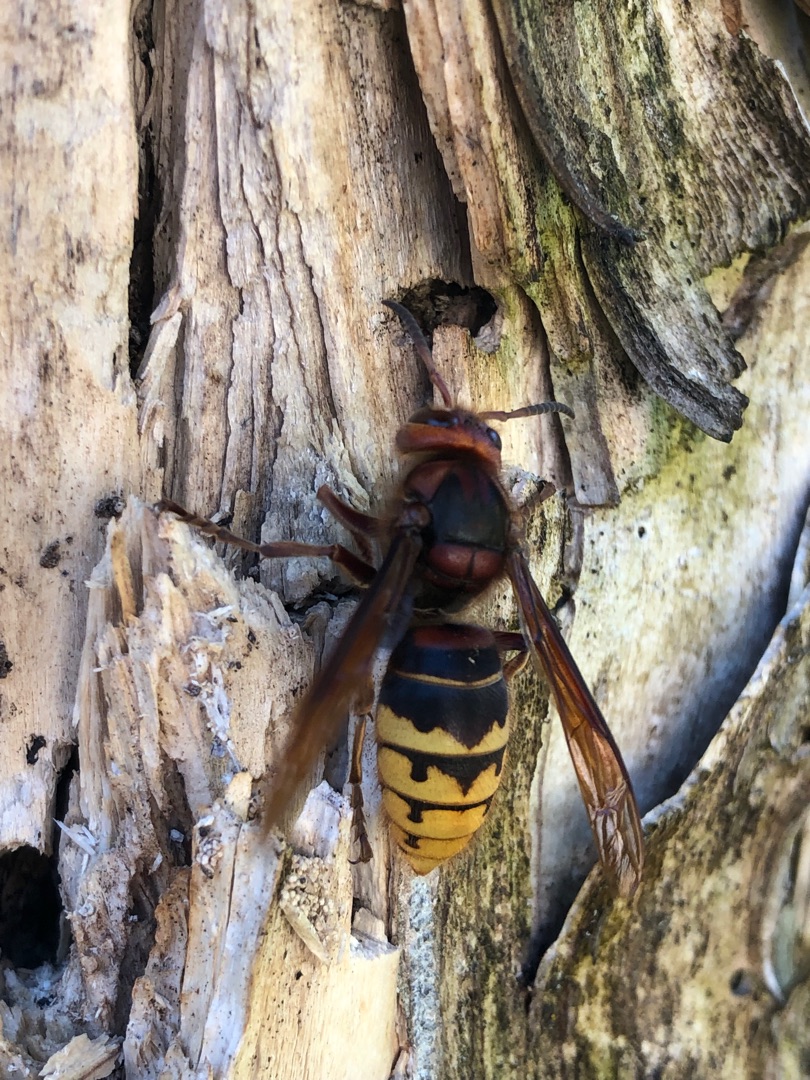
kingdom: Animalia
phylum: Arthropoda
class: Insecta
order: Hymenoptera
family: Vespidae
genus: Vespa
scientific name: Vespa crabro
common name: Stor gedehams
